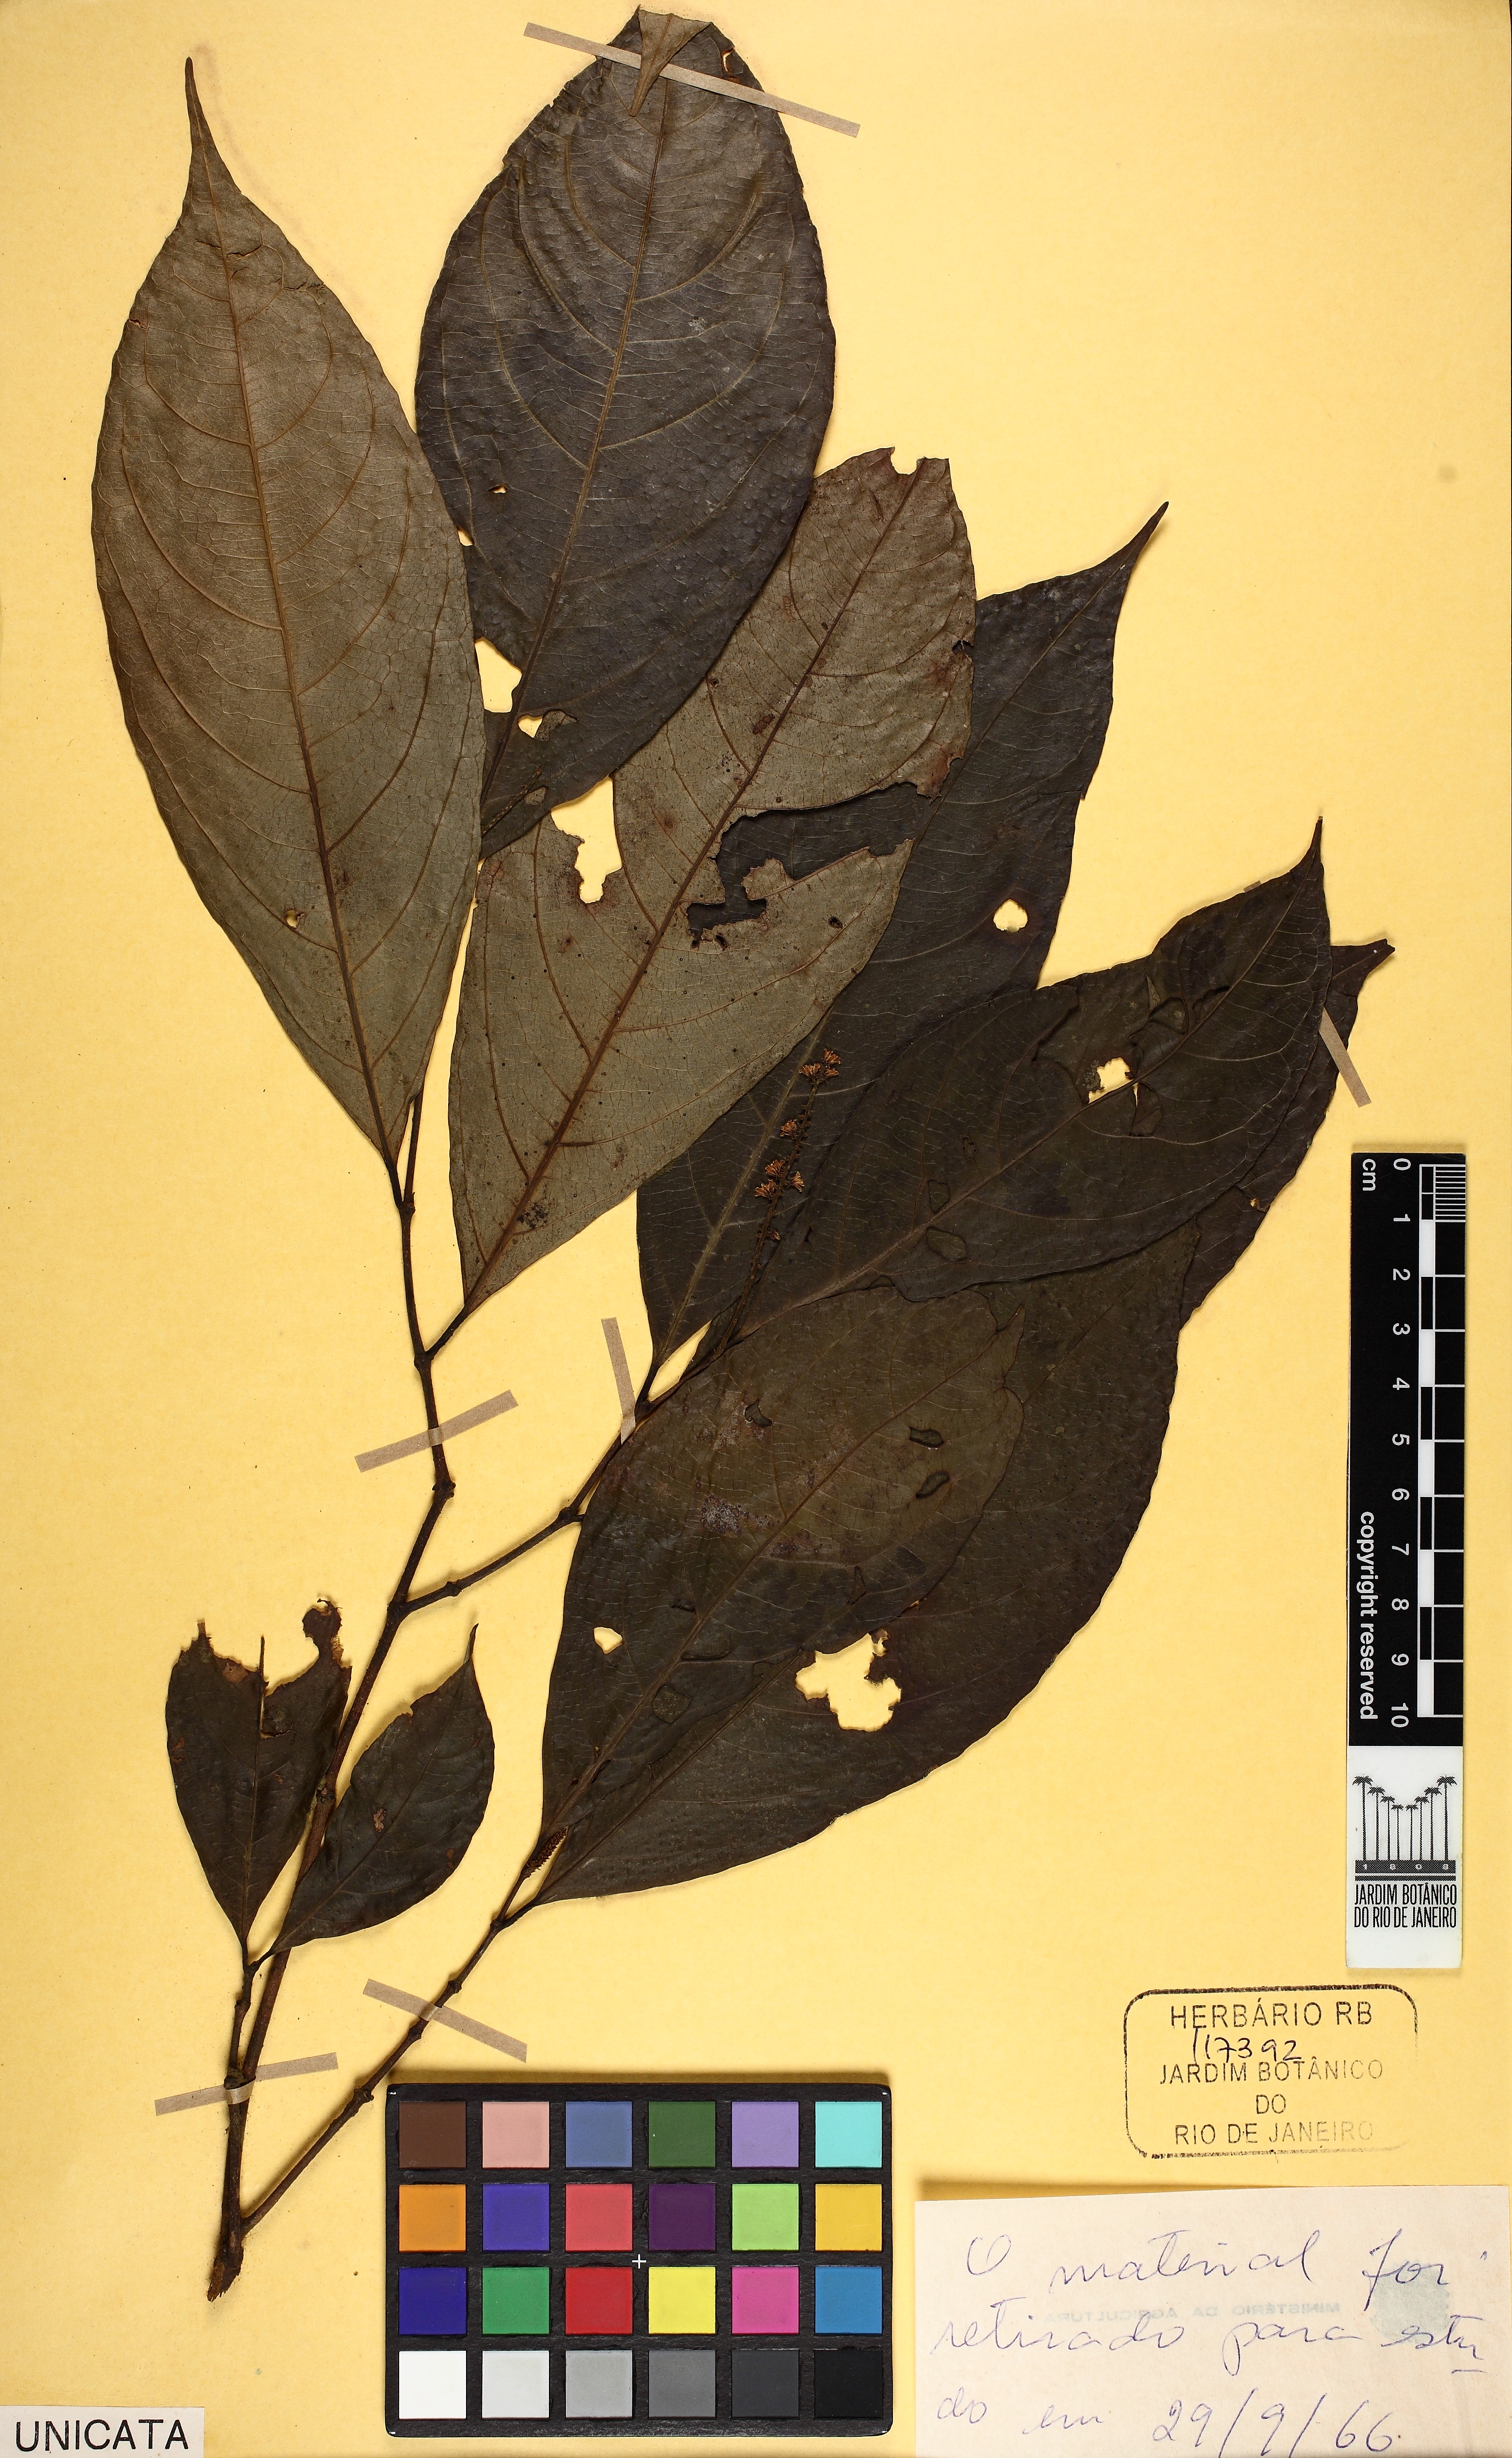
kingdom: Plantae
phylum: Tracheophyta
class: Magnoliopsida
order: Malpighiales
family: Violaceae
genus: Rinorea
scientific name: Rinorea macrocarpa
